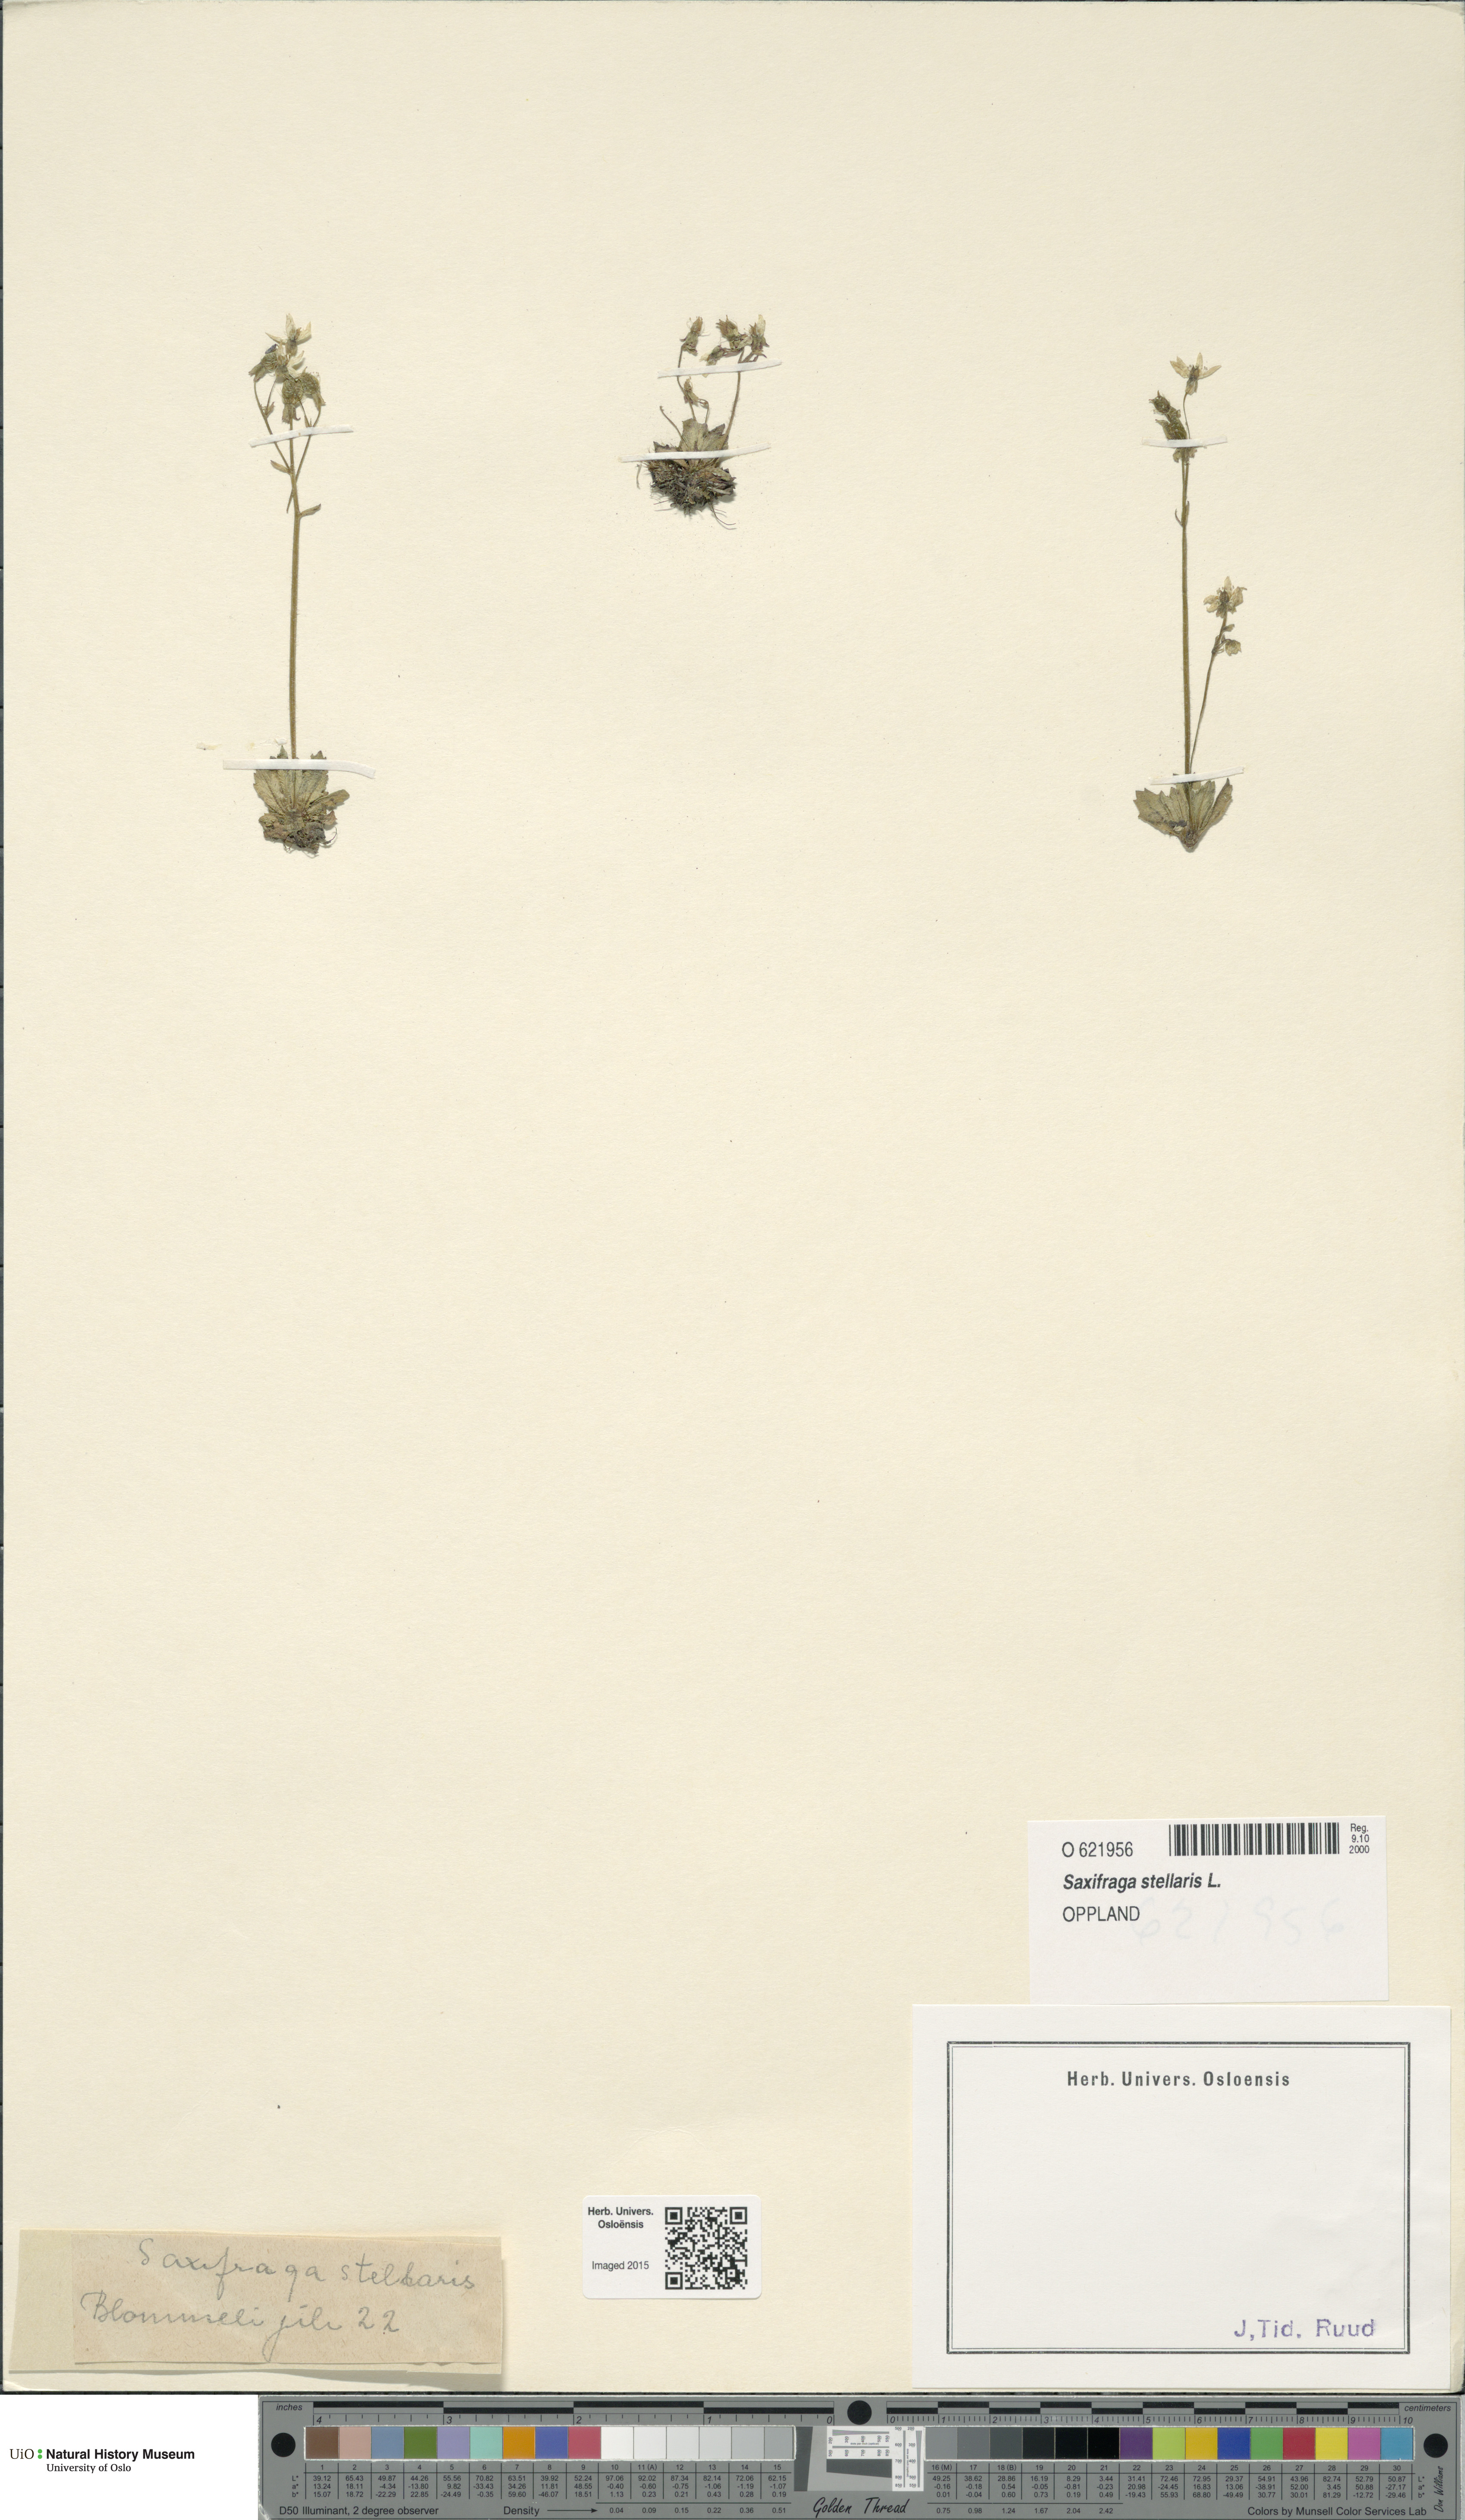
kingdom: Plantae
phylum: Tracheophyta
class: Magnoliopsida
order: Saxifragales
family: Saxifragaceae
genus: Micranthes
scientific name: Micranthes stellaris
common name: Starry saxifrage
